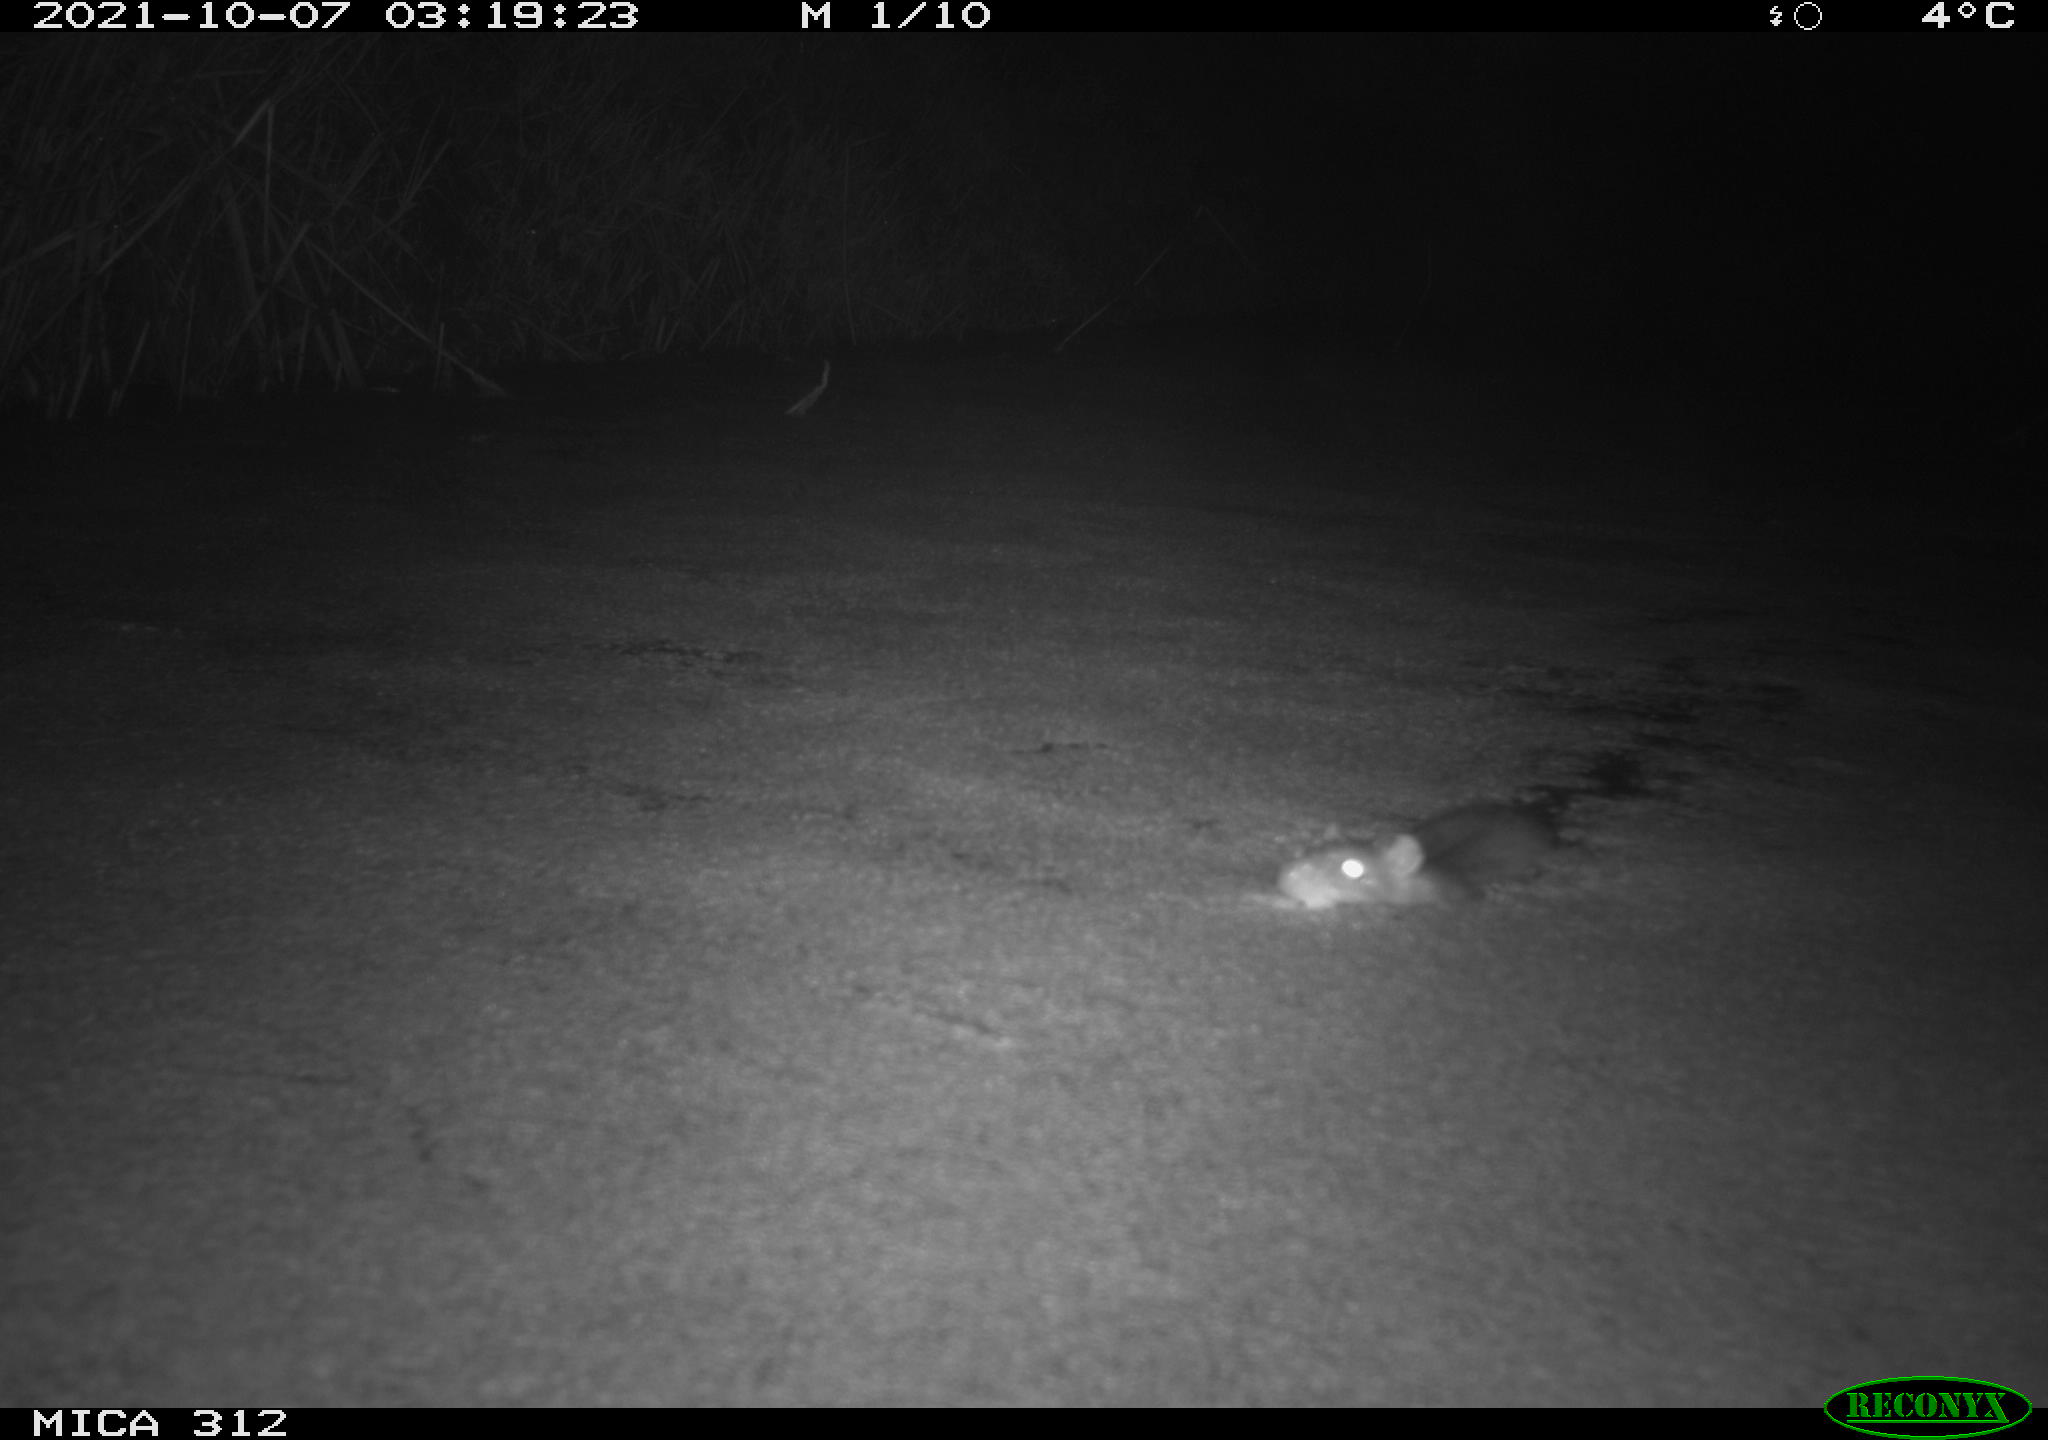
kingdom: Animalia
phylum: Chordata
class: Mammalia
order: Rodentia
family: Muridae
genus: Rattus
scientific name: Rattus norvegicus
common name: Brown rat
